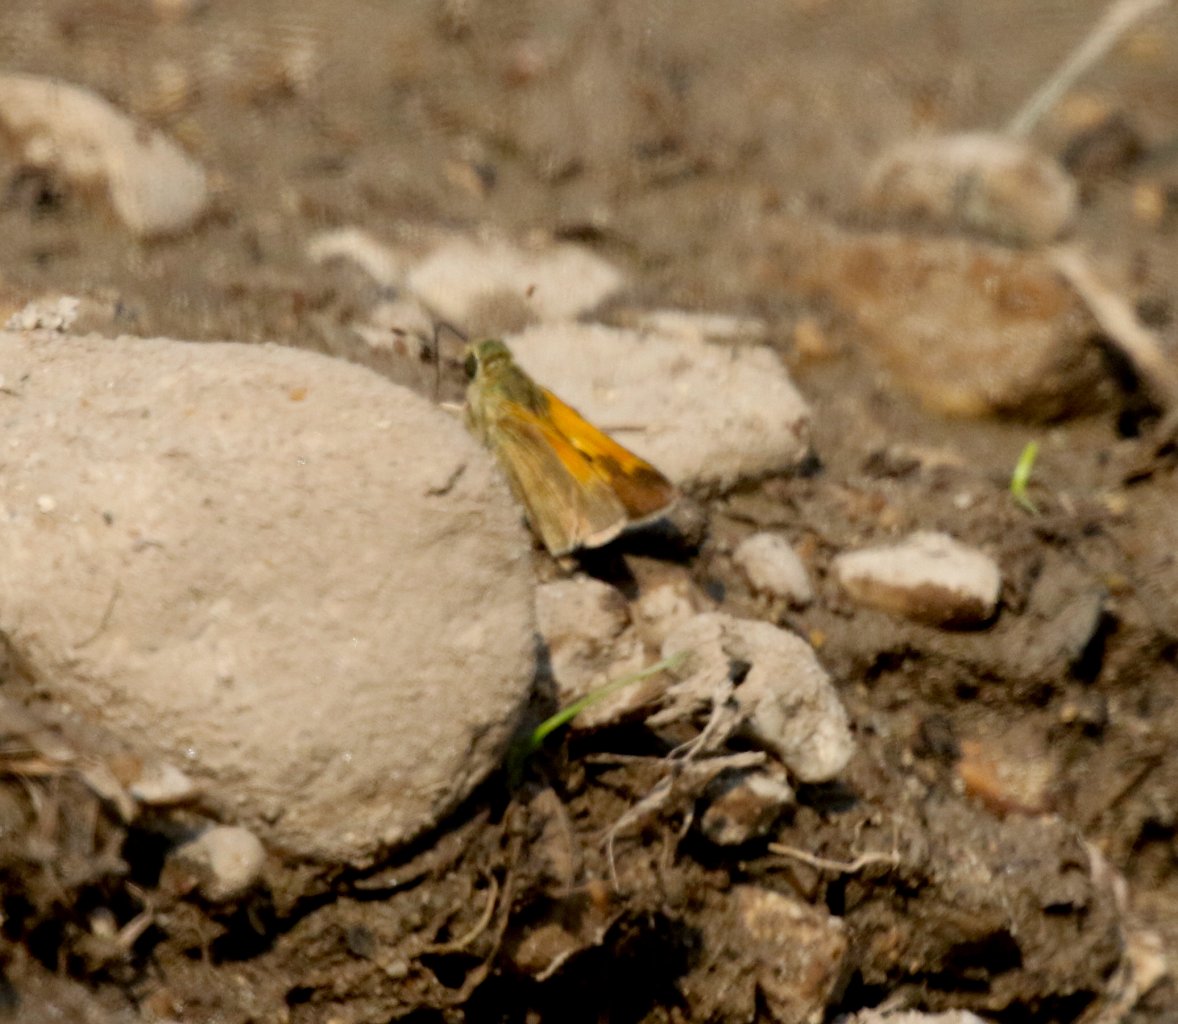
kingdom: Animalia
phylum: Arthropoda
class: Insecta
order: Lepidoptera
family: Hesperiidae
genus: Polites
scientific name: Polites themistocles
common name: Tawny-edged Skipper
